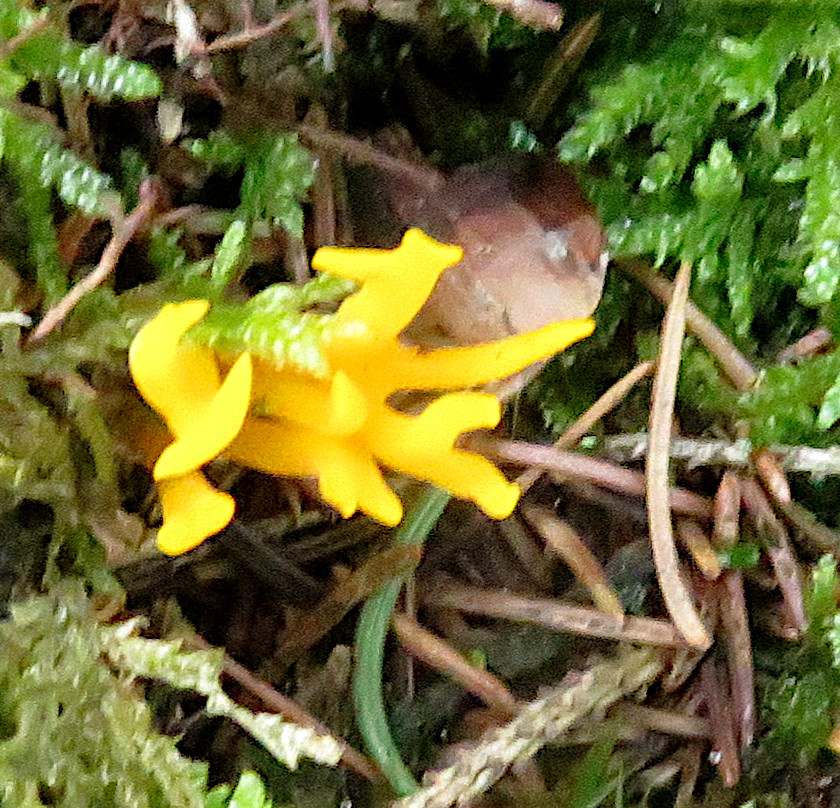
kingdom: Fungi
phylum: Basidiomycota
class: Dacrymycetes
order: Dacrymycetales
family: Dacrymycetaceae
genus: Calocera
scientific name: Calocera viscosa
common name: almindelig guldgaffel
